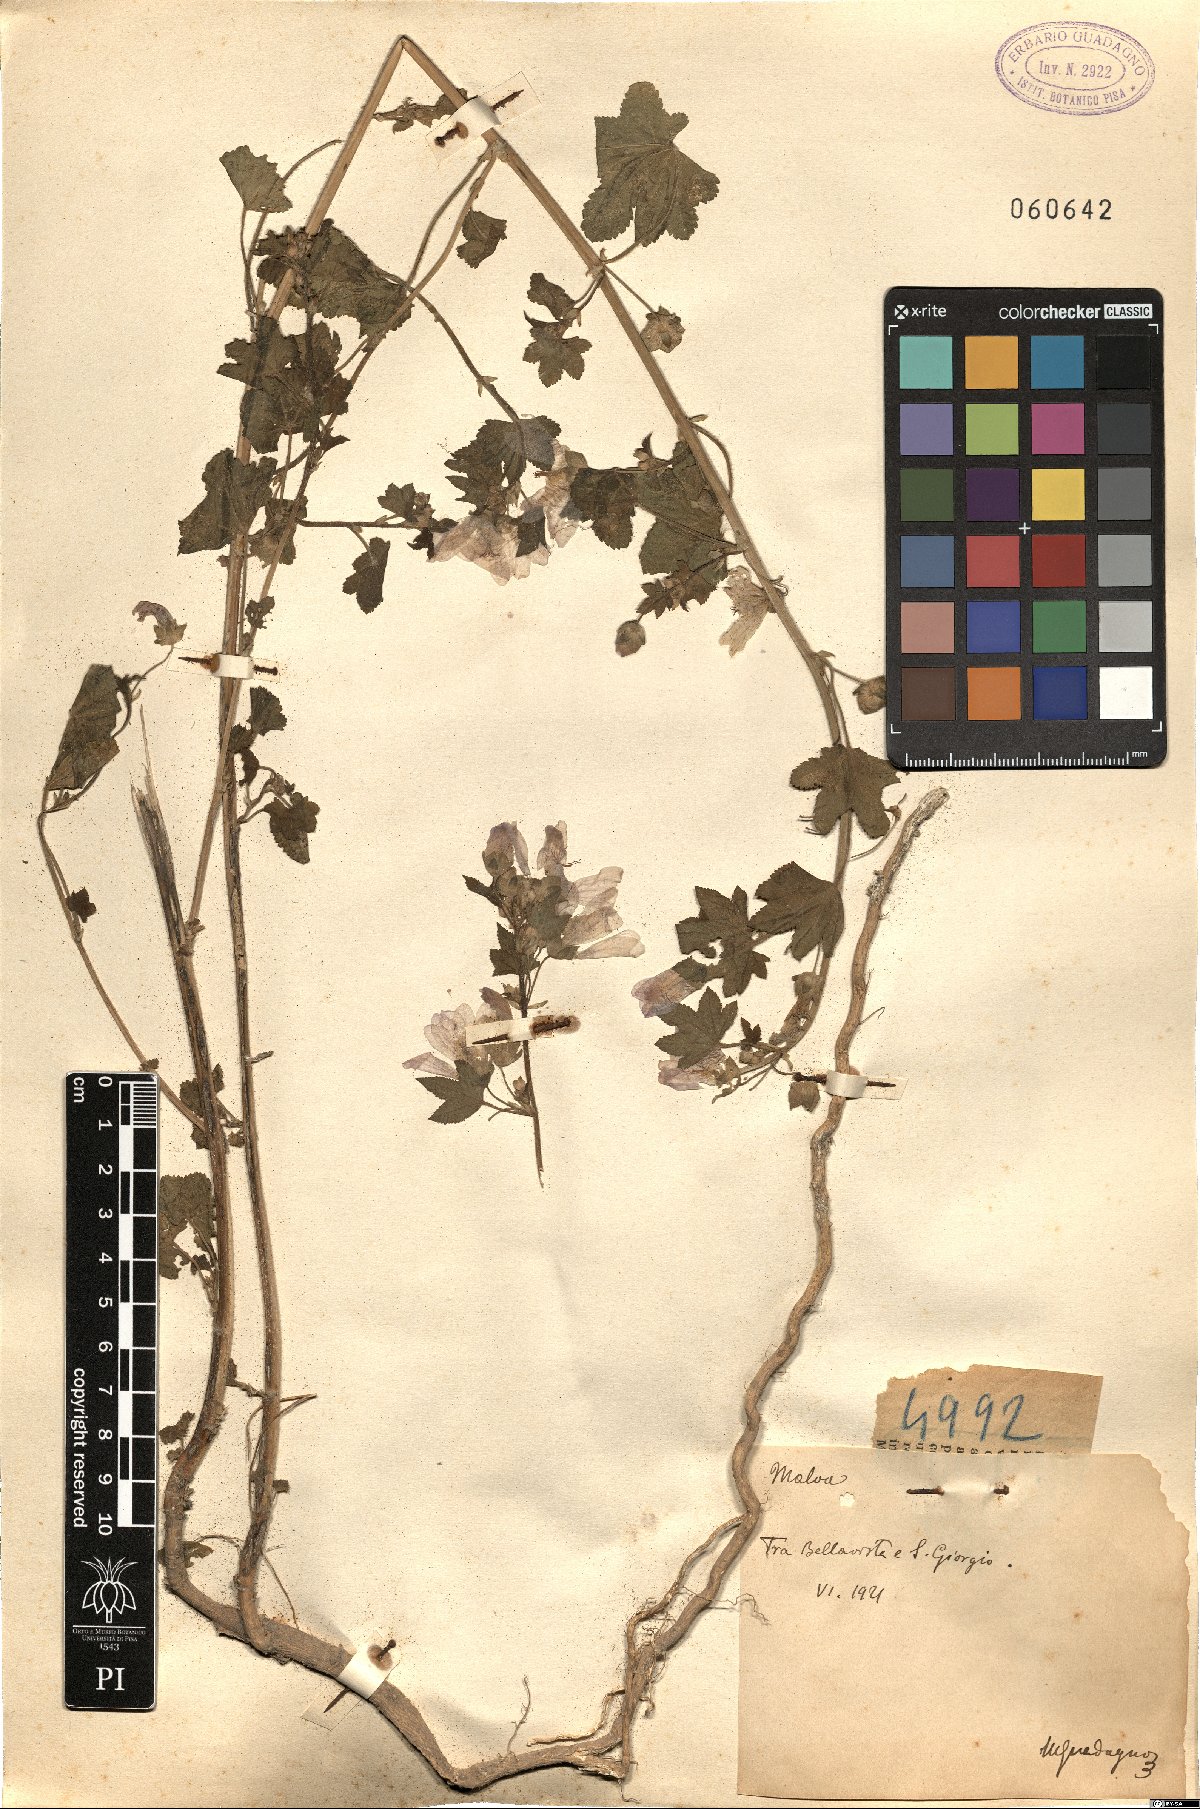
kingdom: Plantae
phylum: Tracheophyta
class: Magnoliopsida
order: Malvales
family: Malvaceae
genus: Malva
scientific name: Malva
